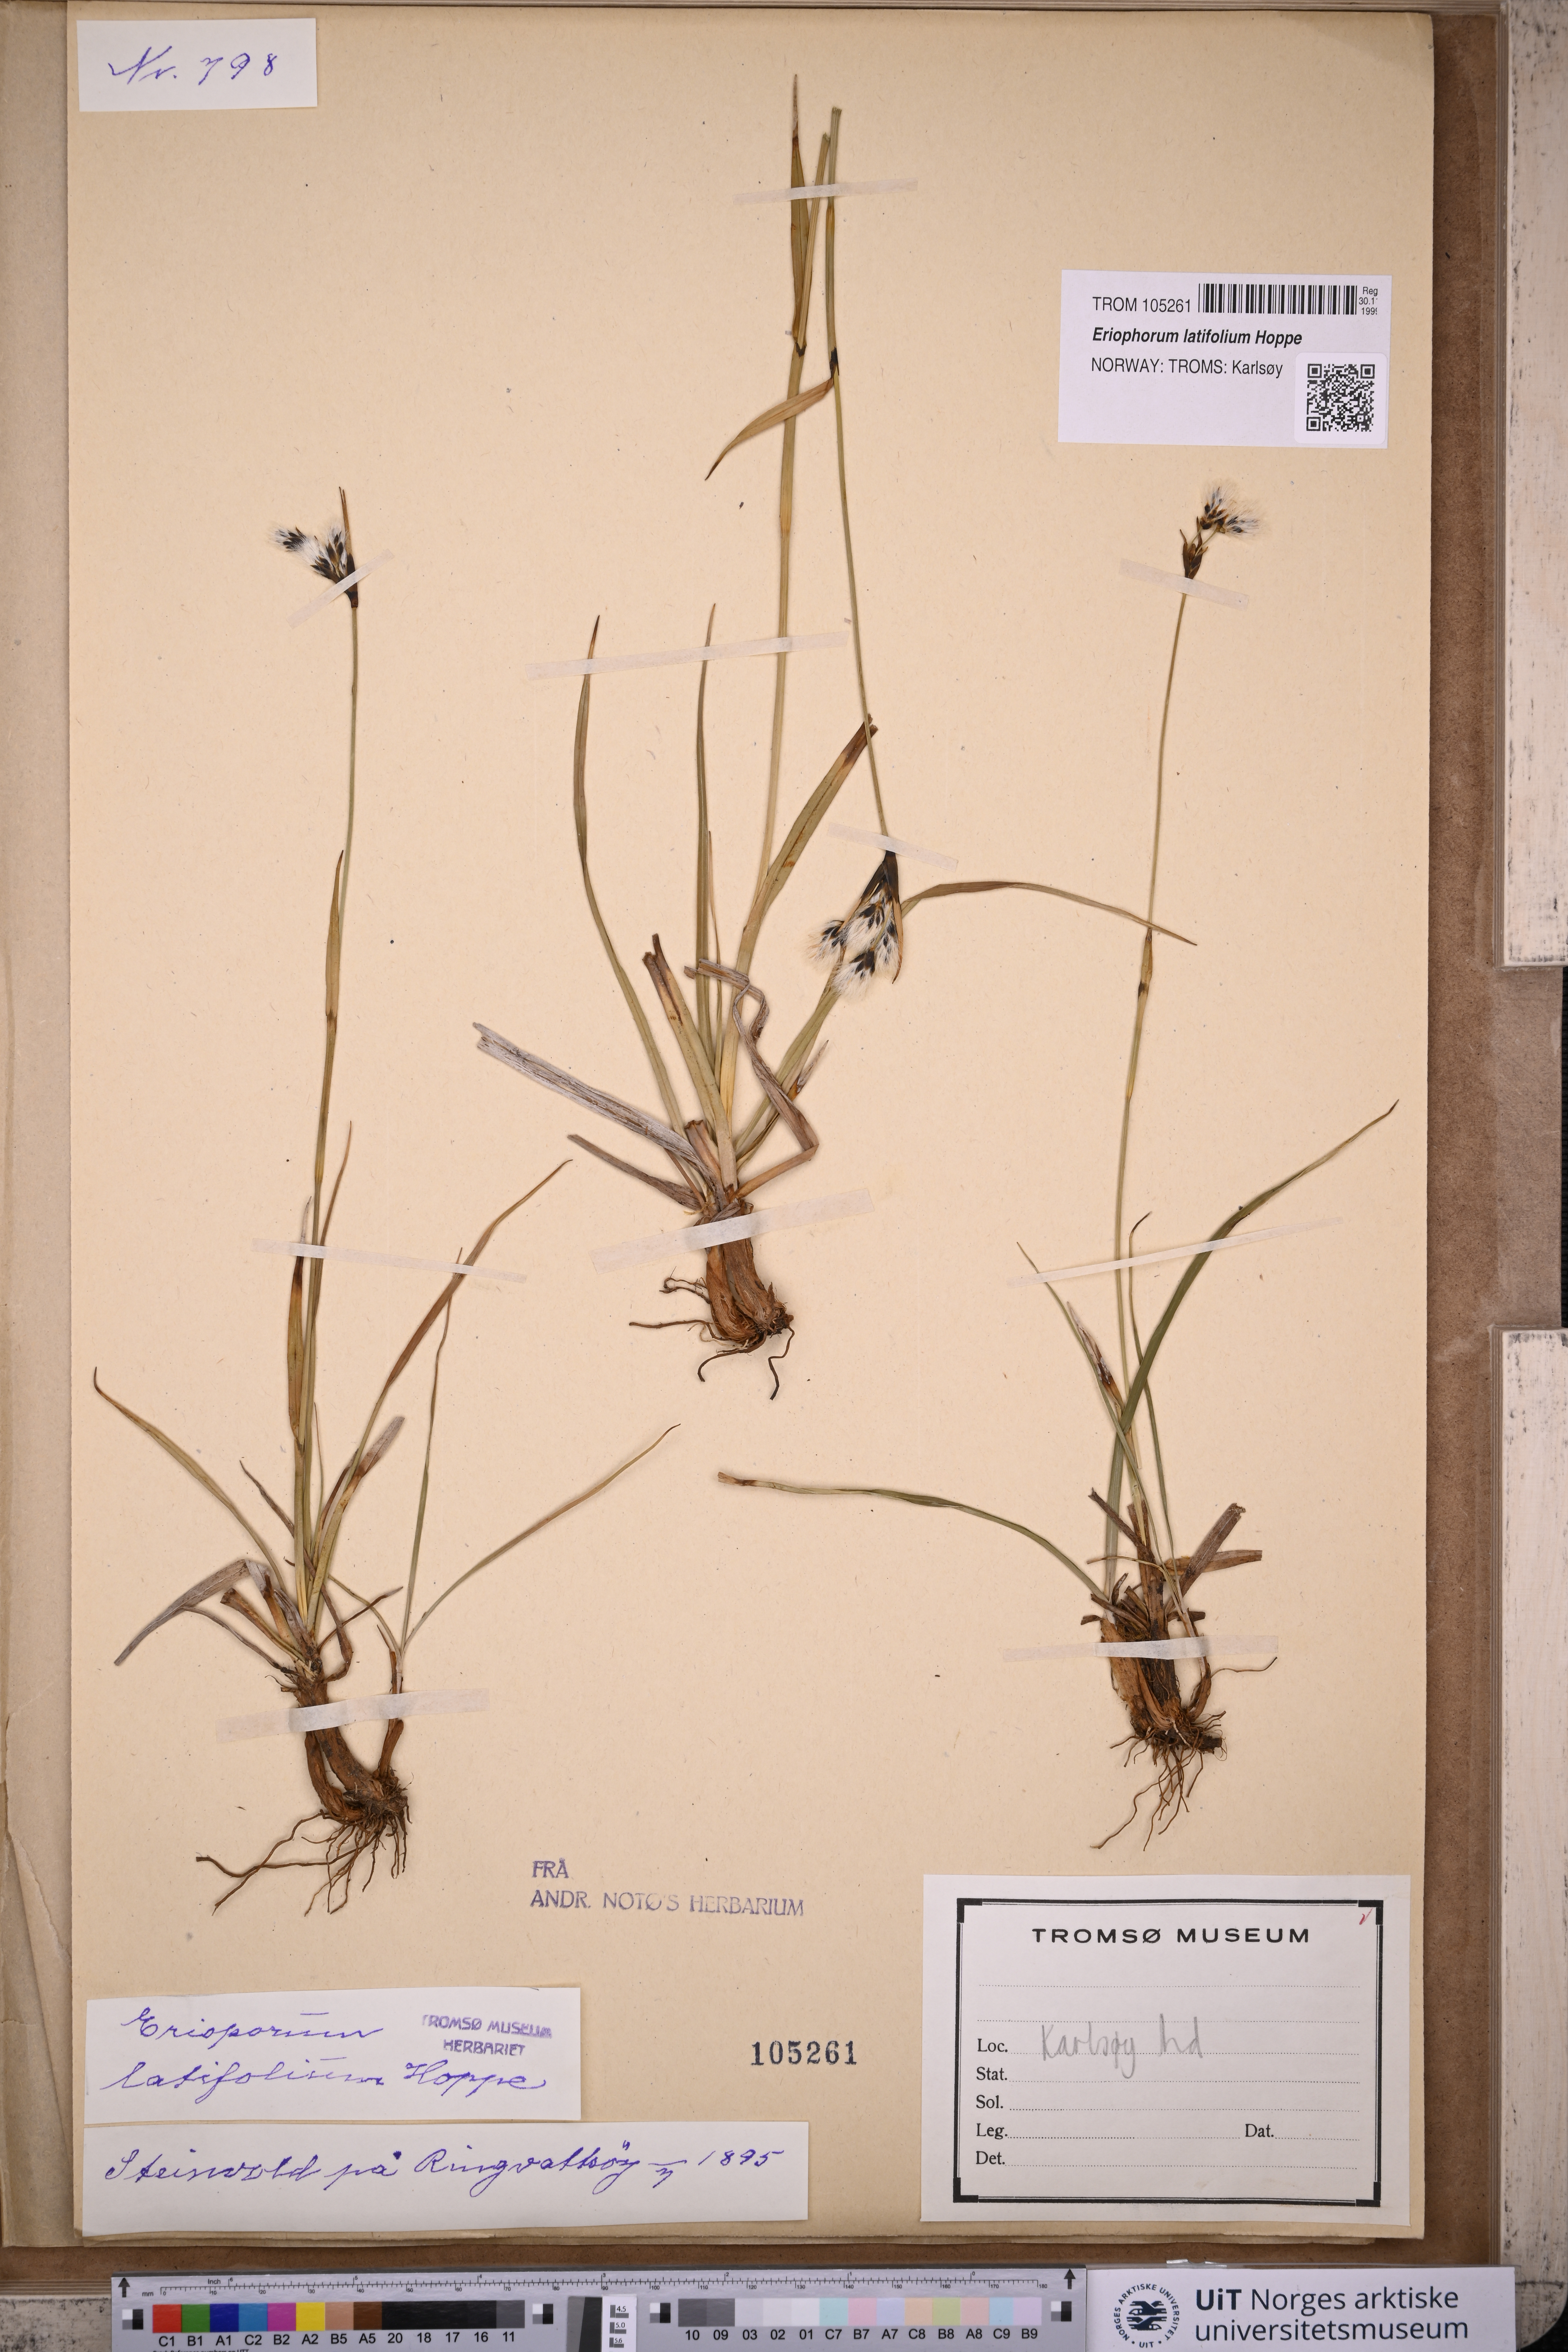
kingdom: Plantae
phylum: Tracheophyta
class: Liliopsida
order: Poales
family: Cyperaceae
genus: Eriophorum
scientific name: Eriophorum latifolium
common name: Broad-leaved cottongrass
